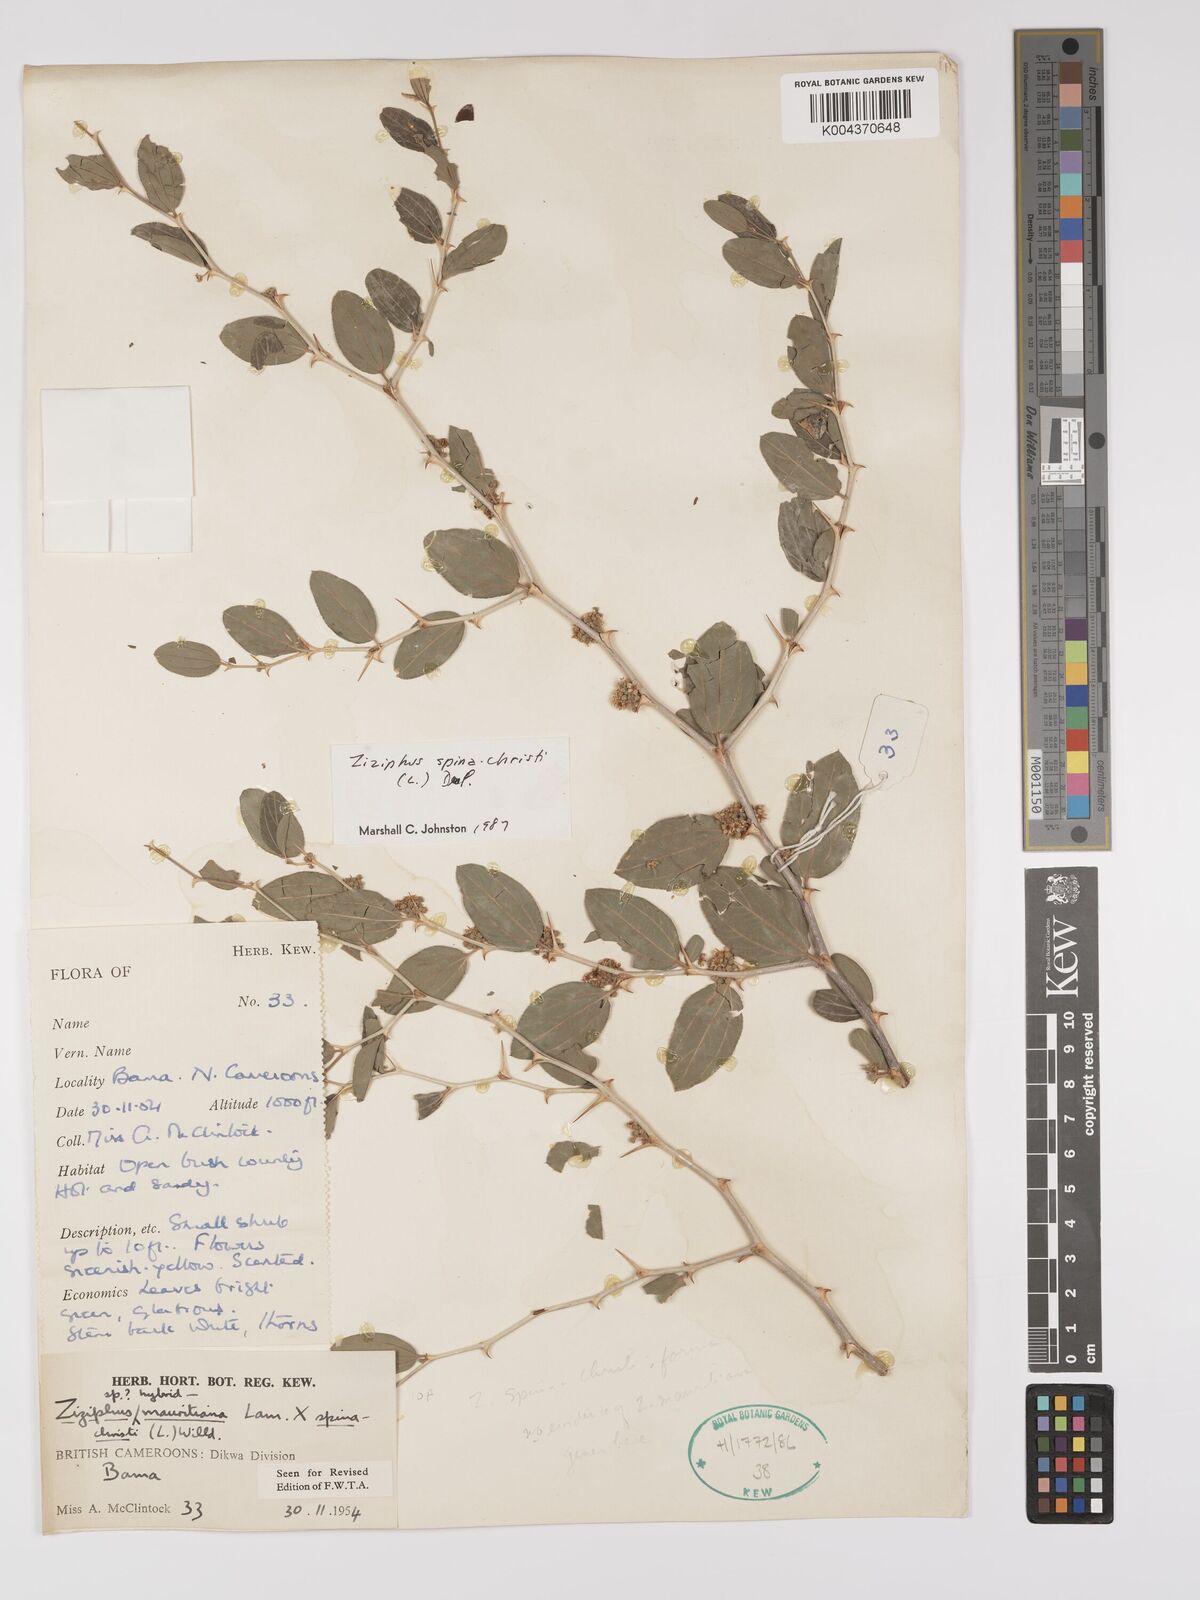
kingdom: Plantae
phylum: Tracheophyta
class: Magnoliopsida
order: Rosales
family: Rhamnaceae
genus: Ziziphus
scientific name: Ziziphus spina-christi
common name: Syrian christ-thorn
